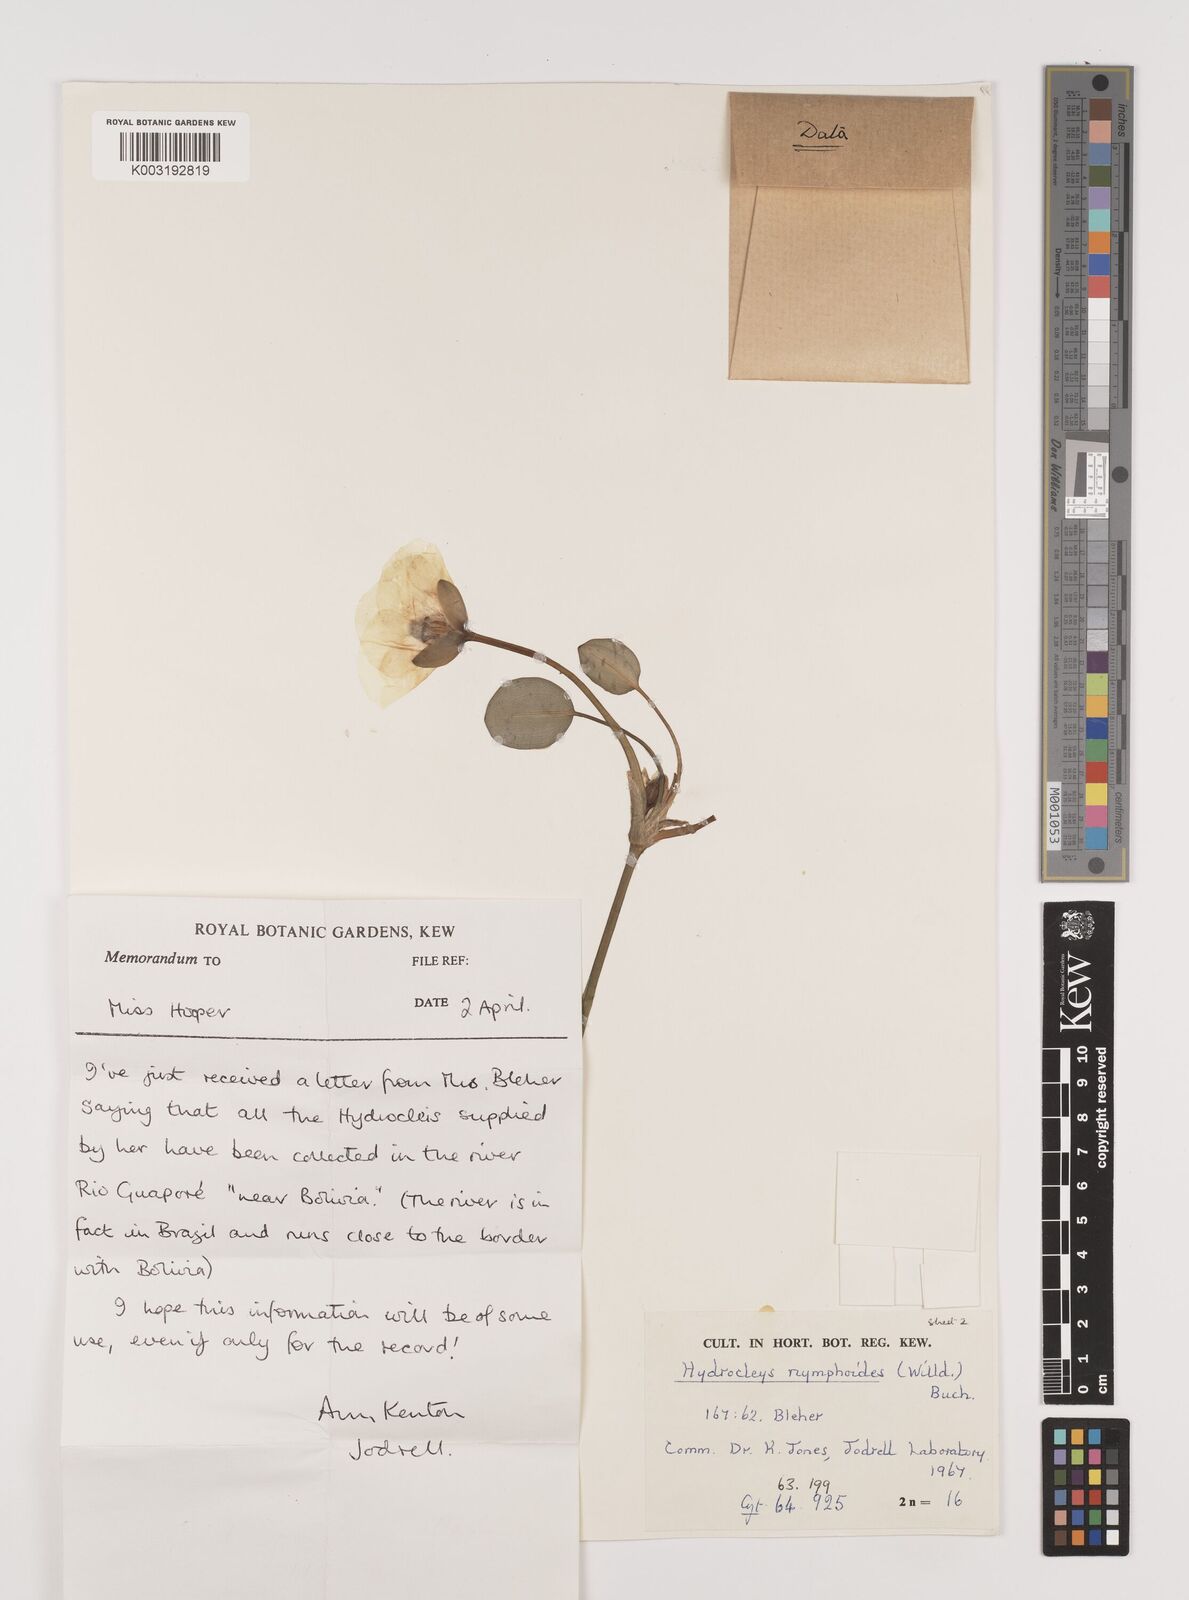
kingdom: Plantae
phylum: Tracheophyta
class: Liliopsida
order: Alismatales
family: Alismataceae
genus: Hydrocleys
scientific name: Hydrocleys nymphoides
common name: Water-poppy
